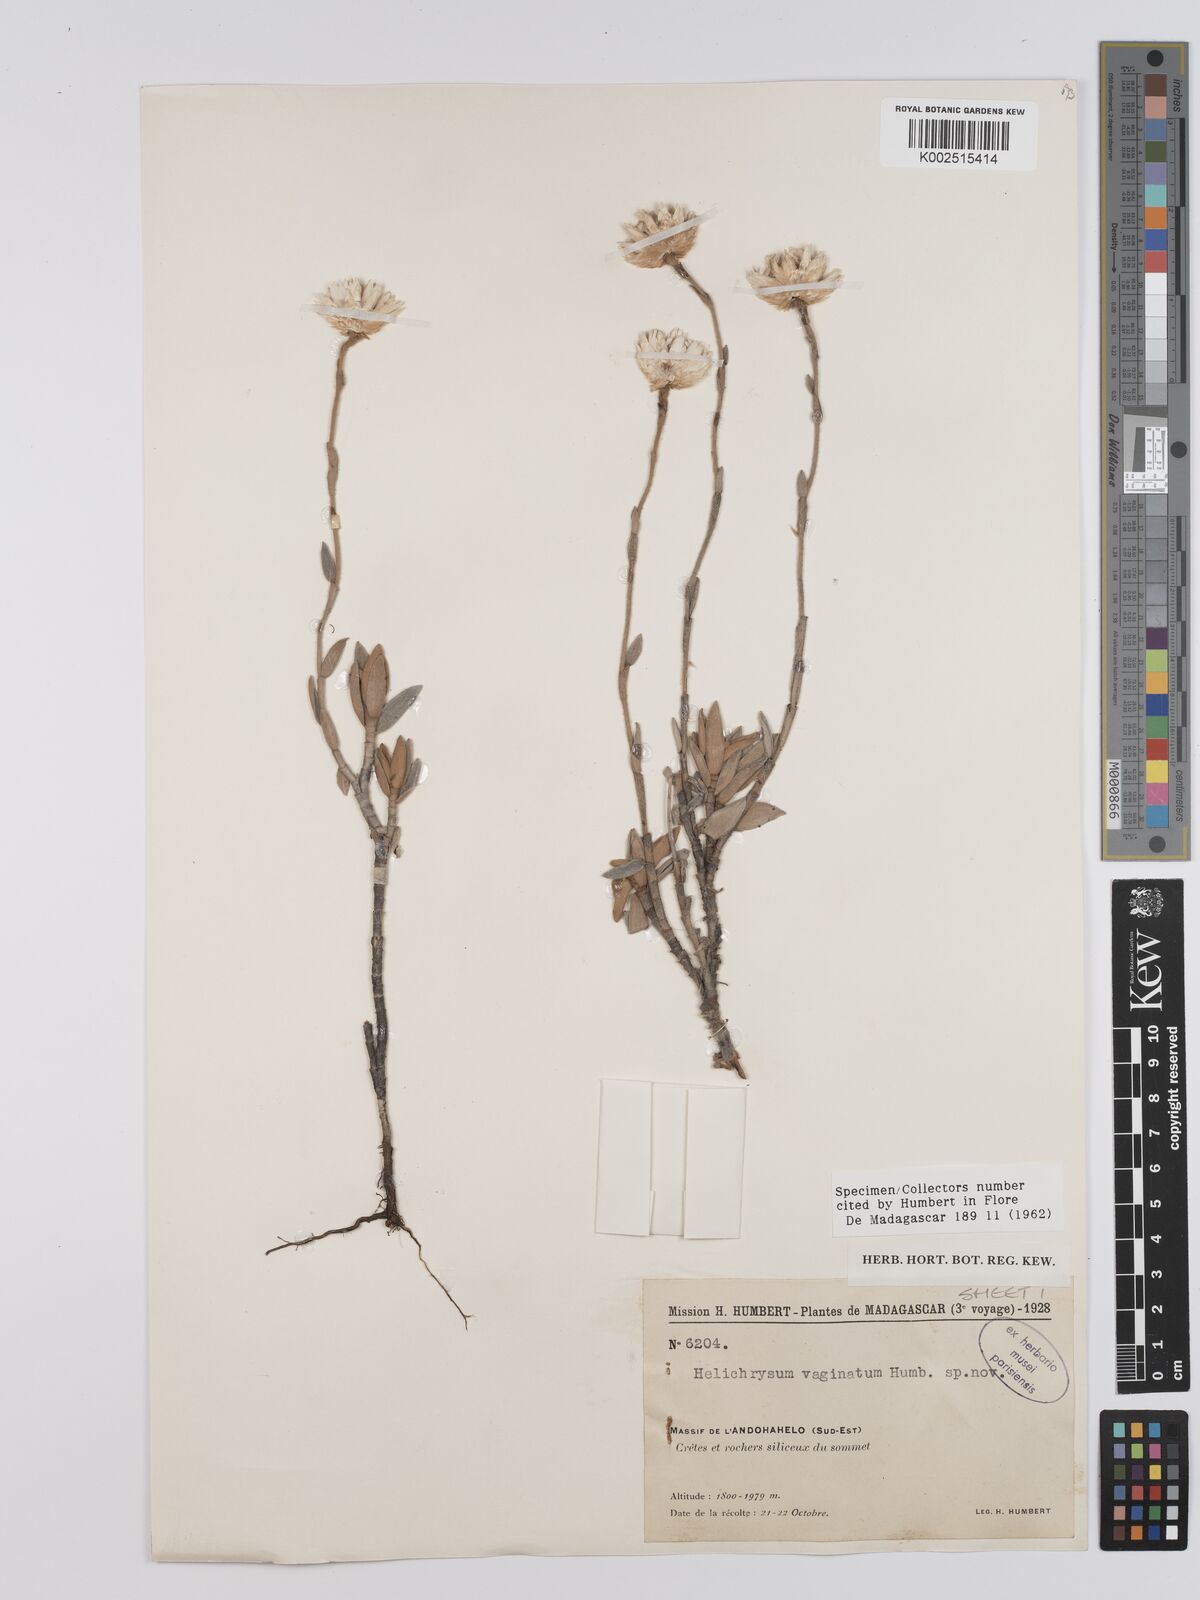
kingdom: Plantae
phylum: Tracheophyta
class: Magnoliopsida
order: Asterales
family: Asteraceae
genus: Helichrysum
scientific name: Helichrysum vaginatum
